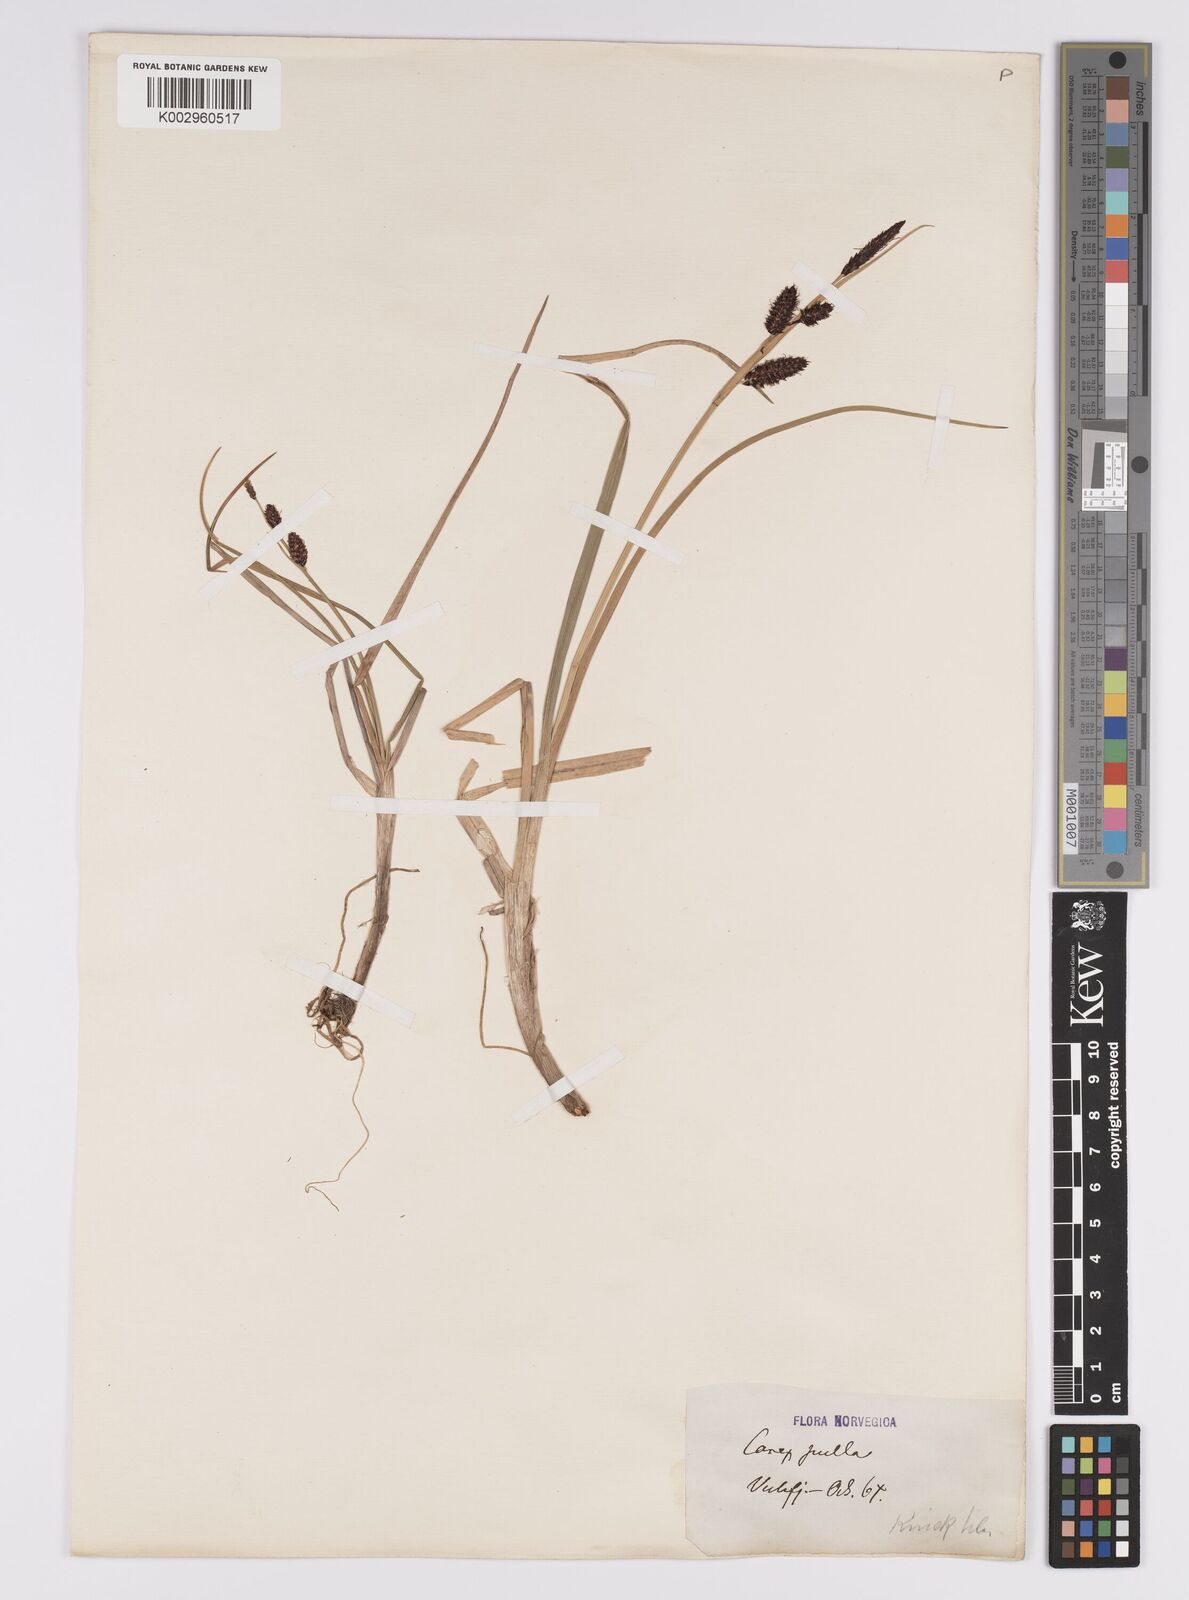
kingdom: Plantae
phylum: Tracheophyta
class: Liliopsida
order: Poales
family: Cyperaceae
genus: Carex
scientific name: Carex saxatilis
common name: Russet sedge
